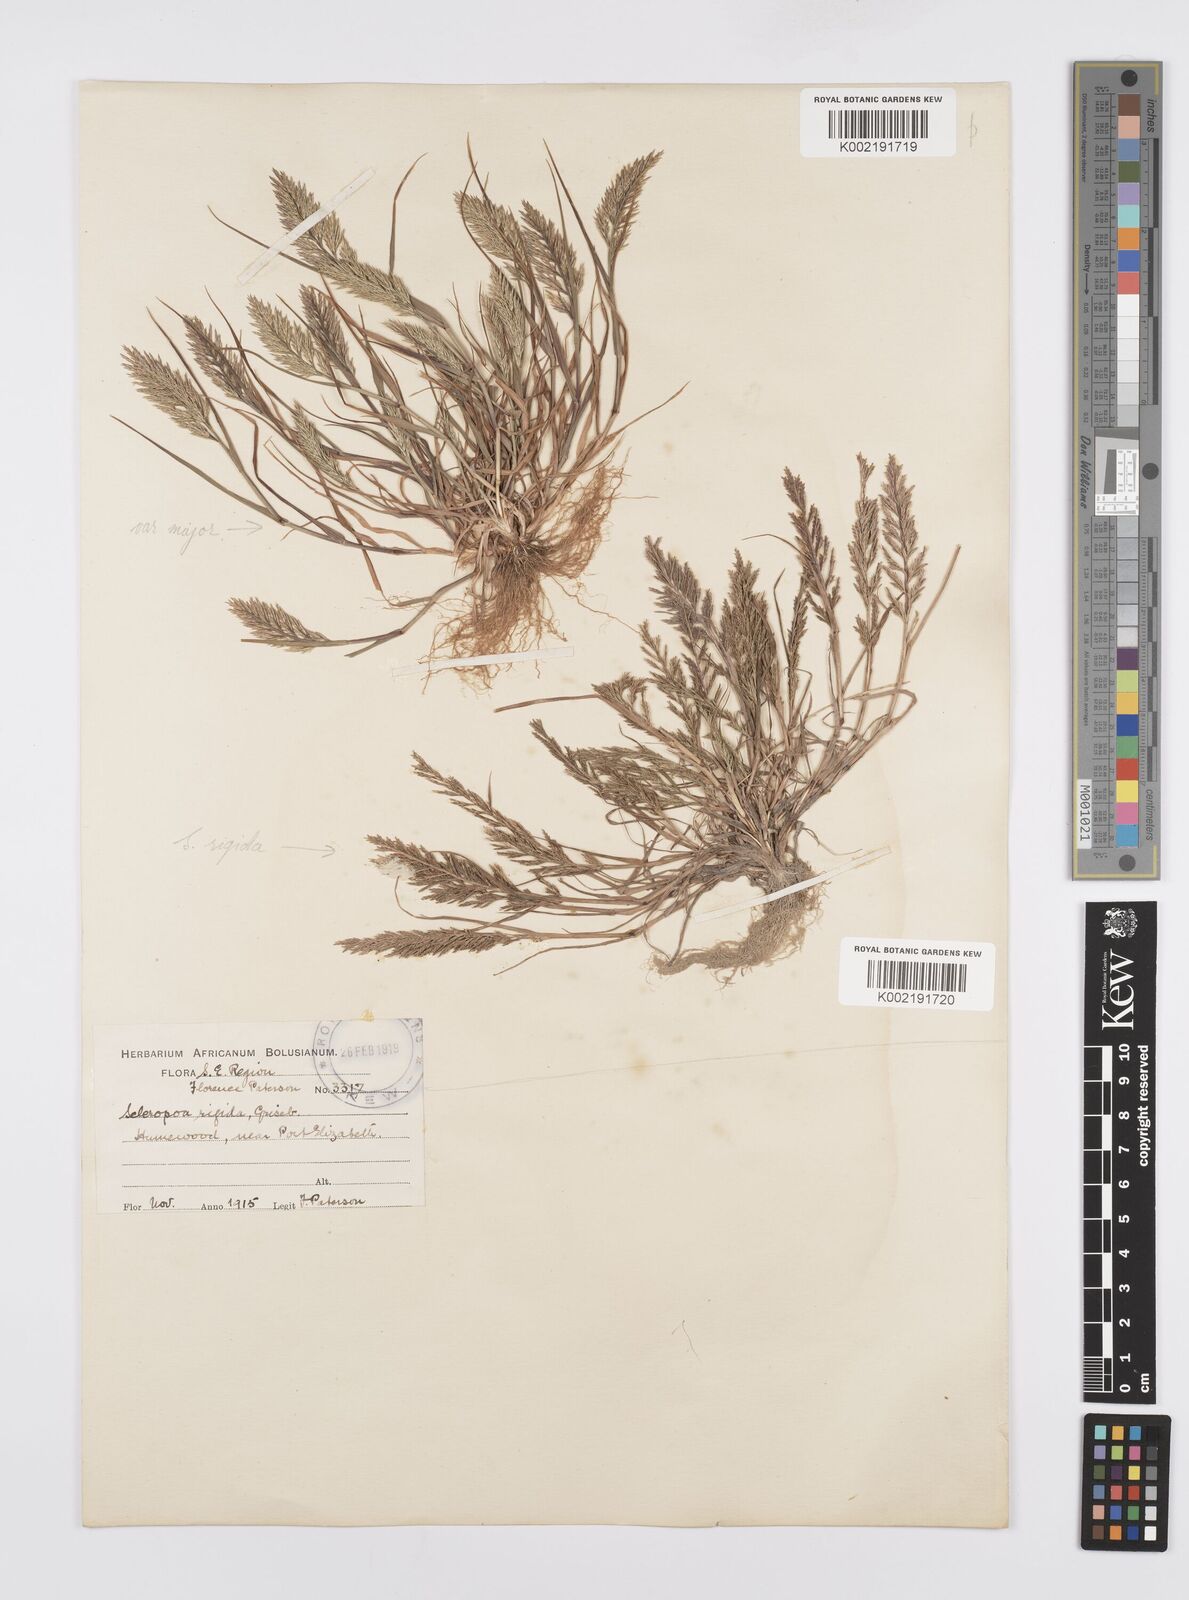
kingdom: Plantae
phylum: Tracheophyta
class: Liliopsida
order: Poales
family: Poaceae
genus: Catapodium
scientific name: Catapodium rigidum
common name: Fern-grass
